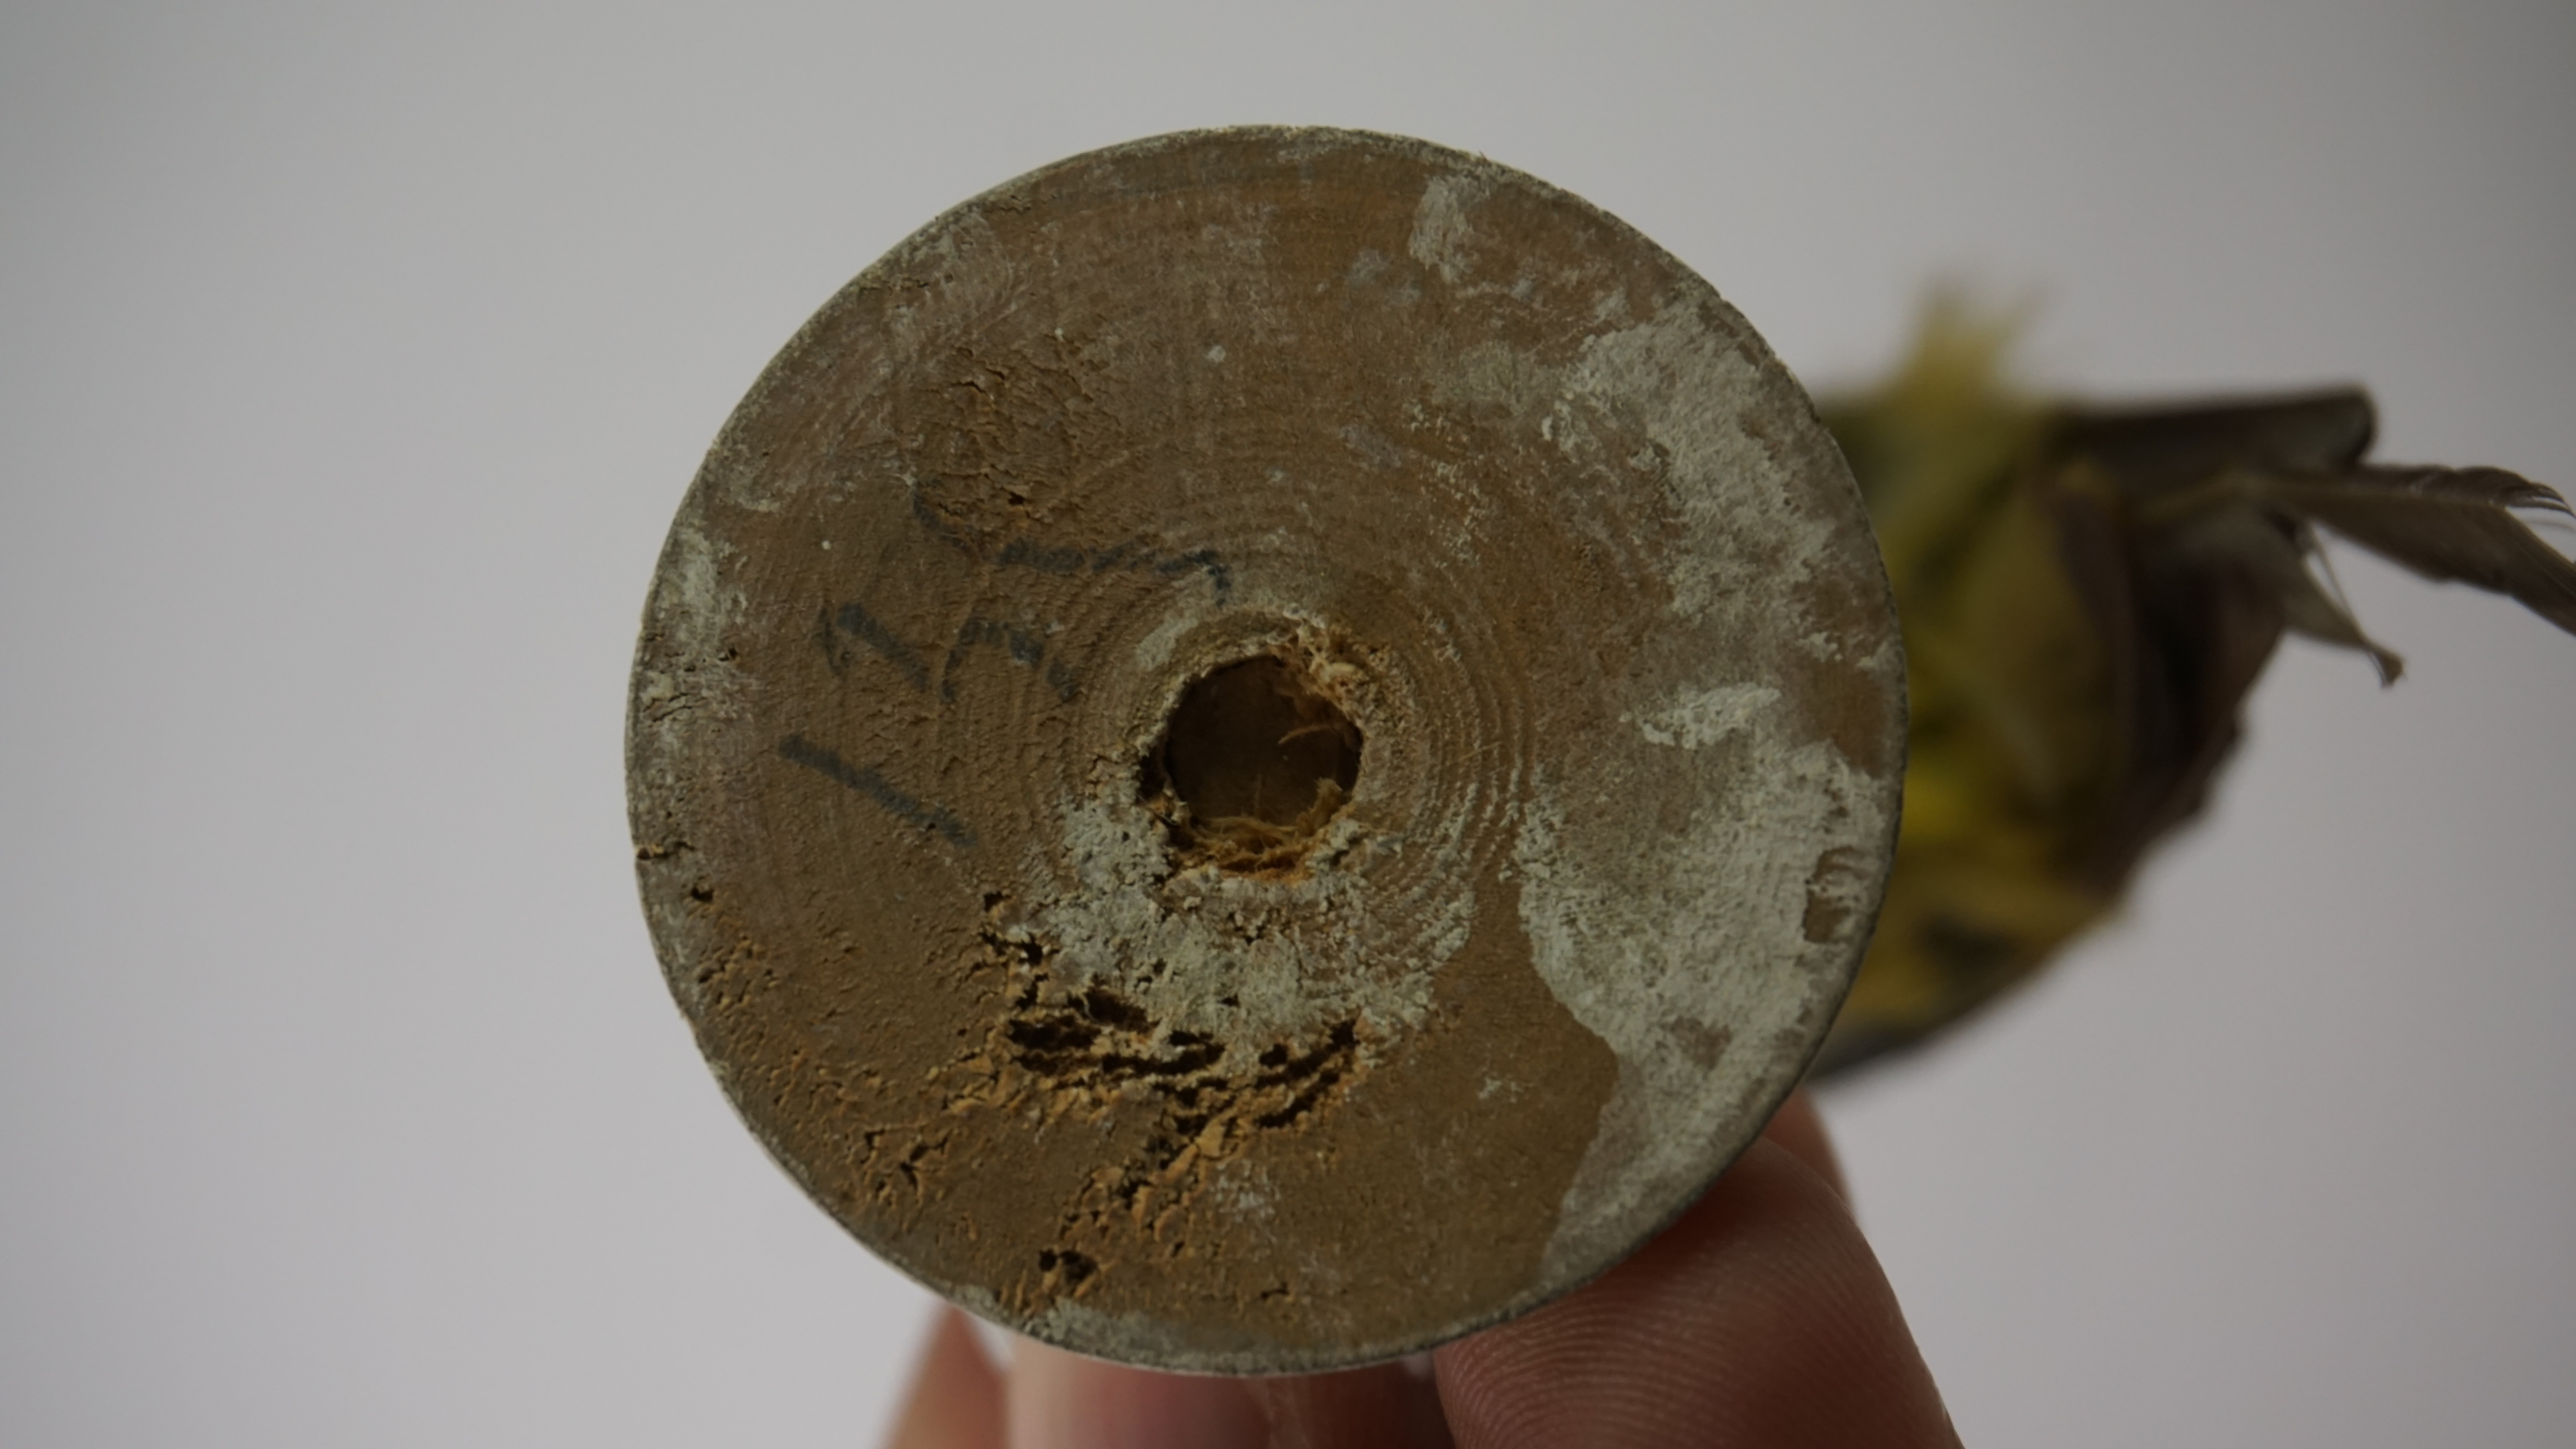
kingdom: Animalia
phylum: Chordata
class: Aves
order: Passeriformes
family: Thraupidae
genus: Thlypopsis
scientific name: Thlypopsis superciliaris
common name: Superciliaried hemispingus
